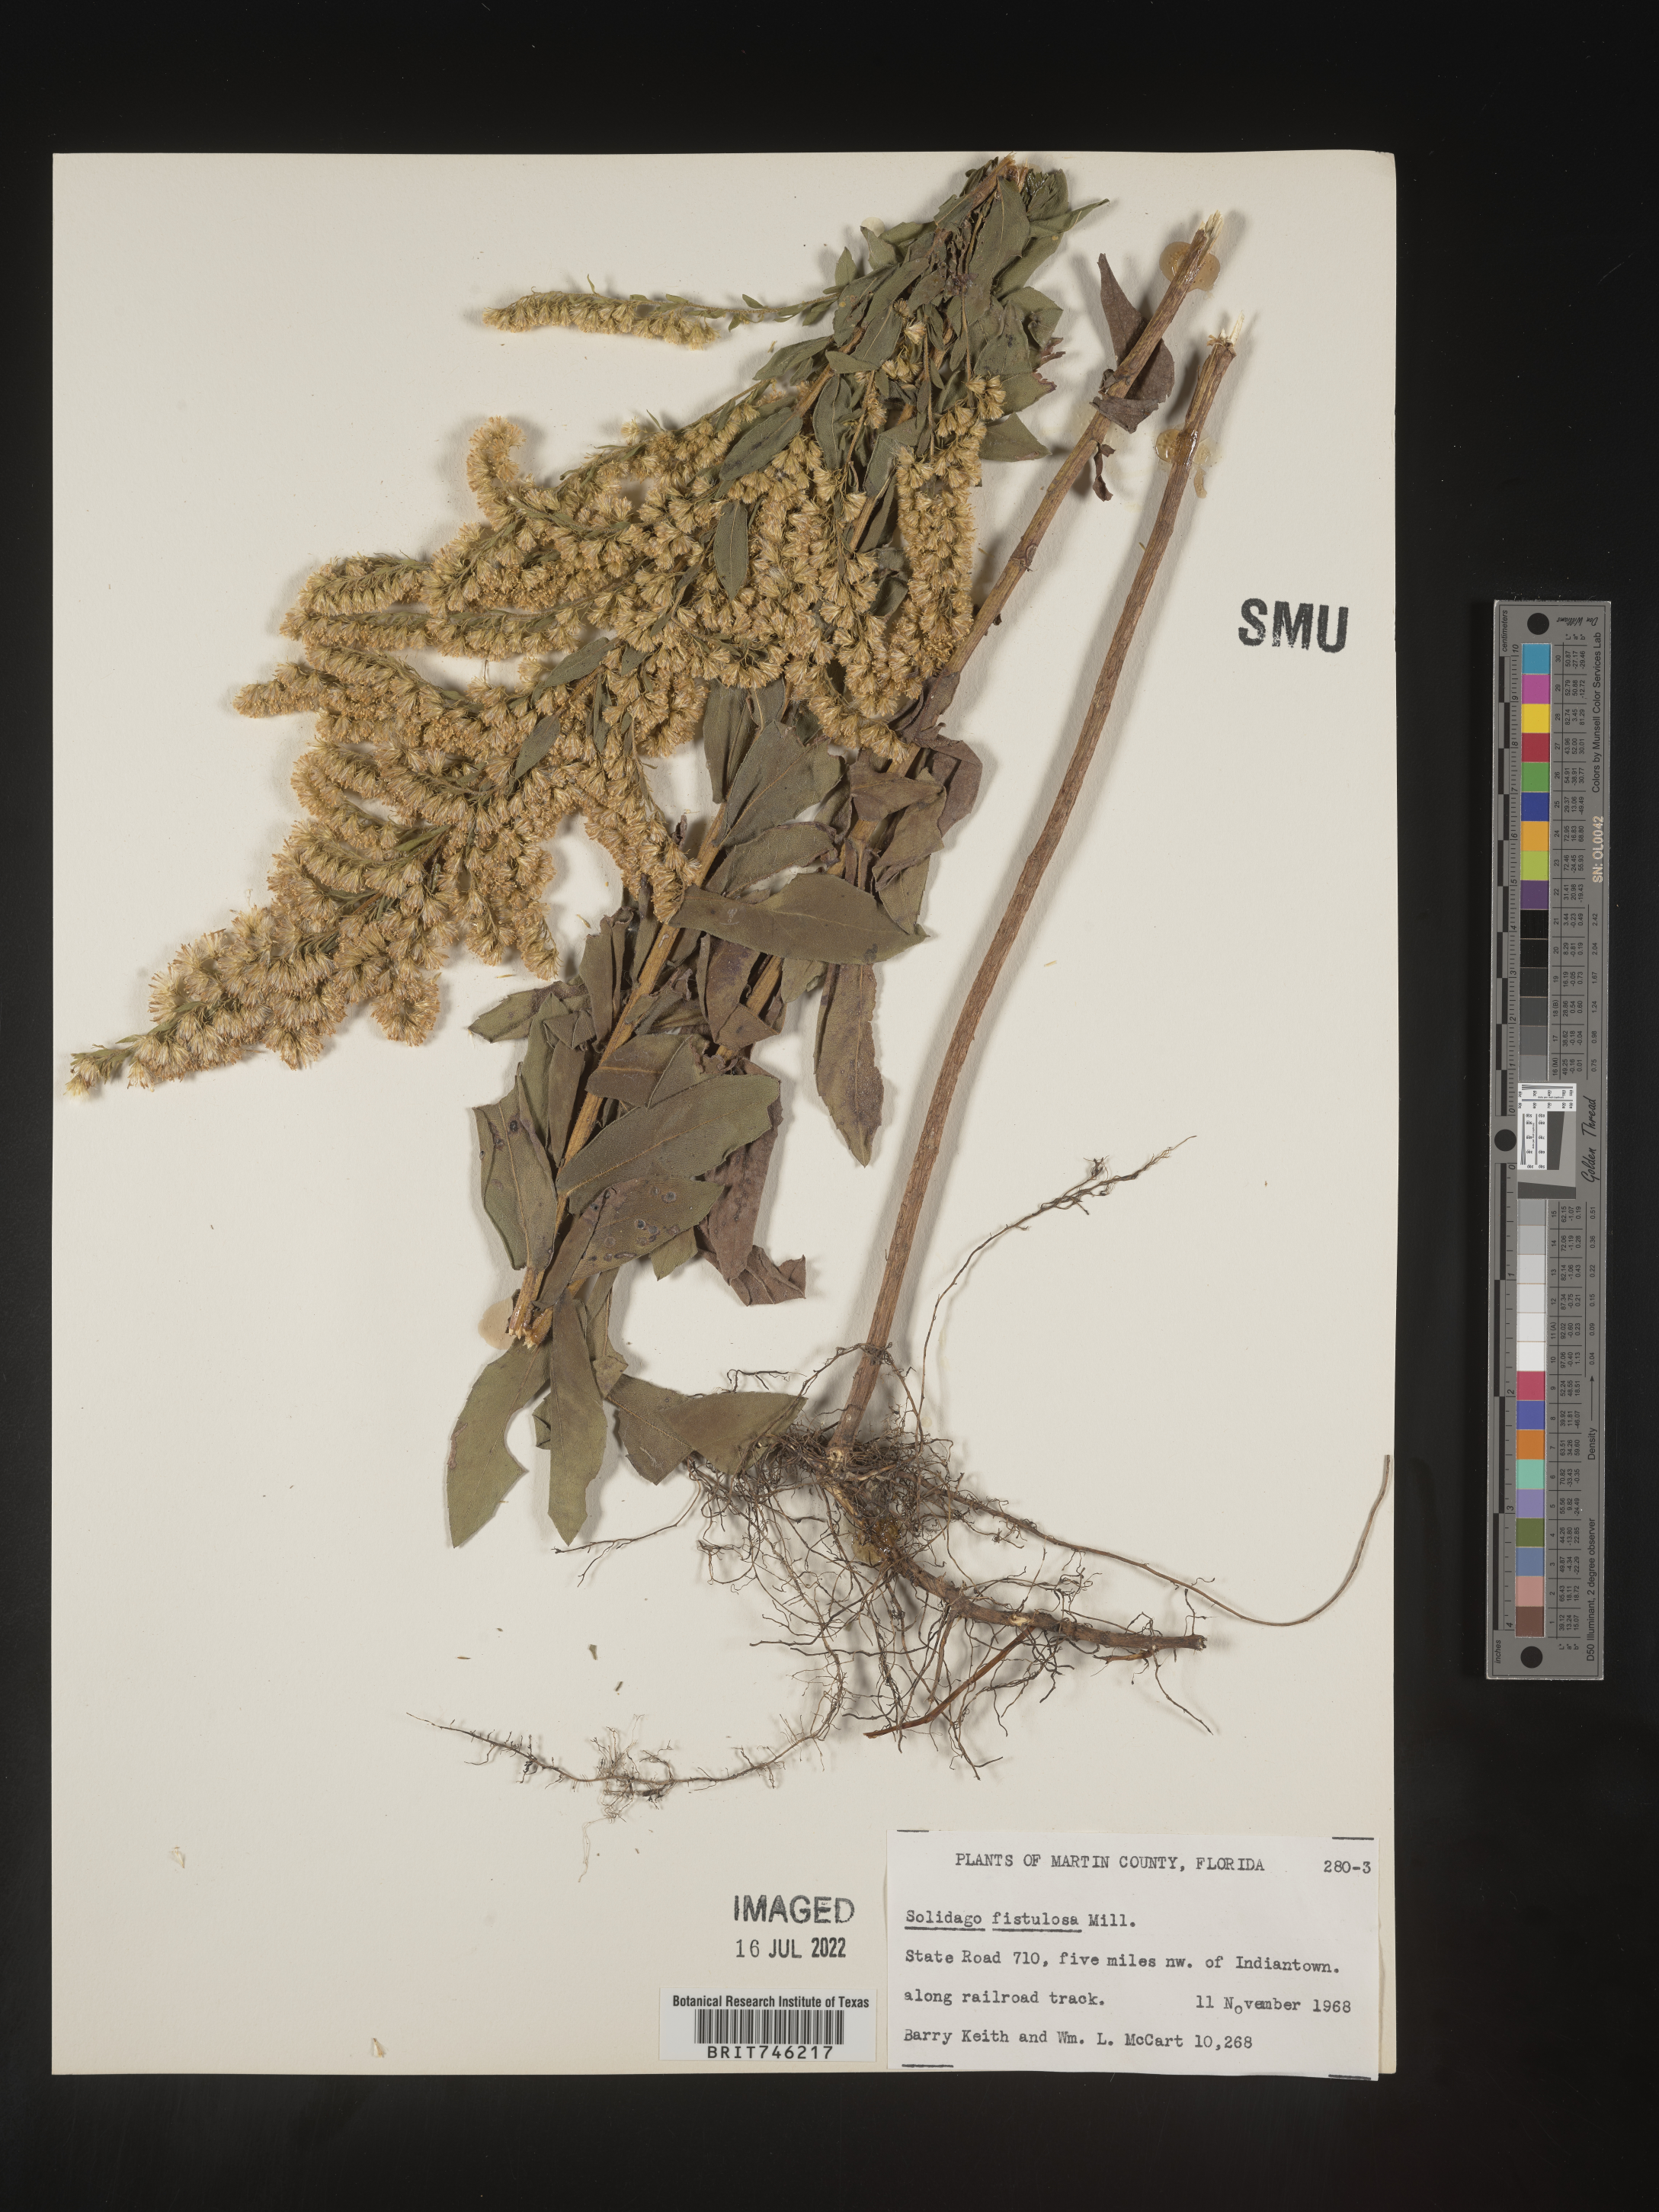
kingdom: Plantae
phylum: Tracheophyta
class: Magnoliopsida
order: Asterales
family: Asteraceae
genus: Solidago
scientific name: Solidago fistulosa
